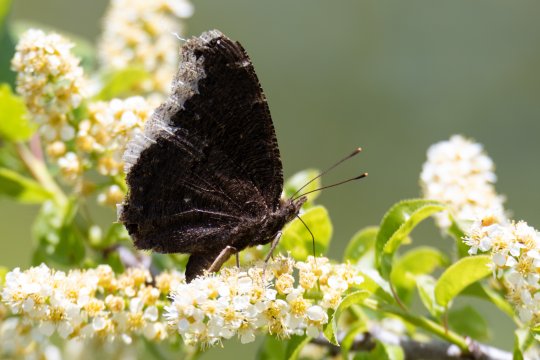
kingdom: Animalia
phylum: Arthropoda
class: Insecta
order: Lepidoptera
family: Nymphalidae
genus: Nymphalis
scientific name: Nymphalis antiopa
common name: Mourning Cloak
